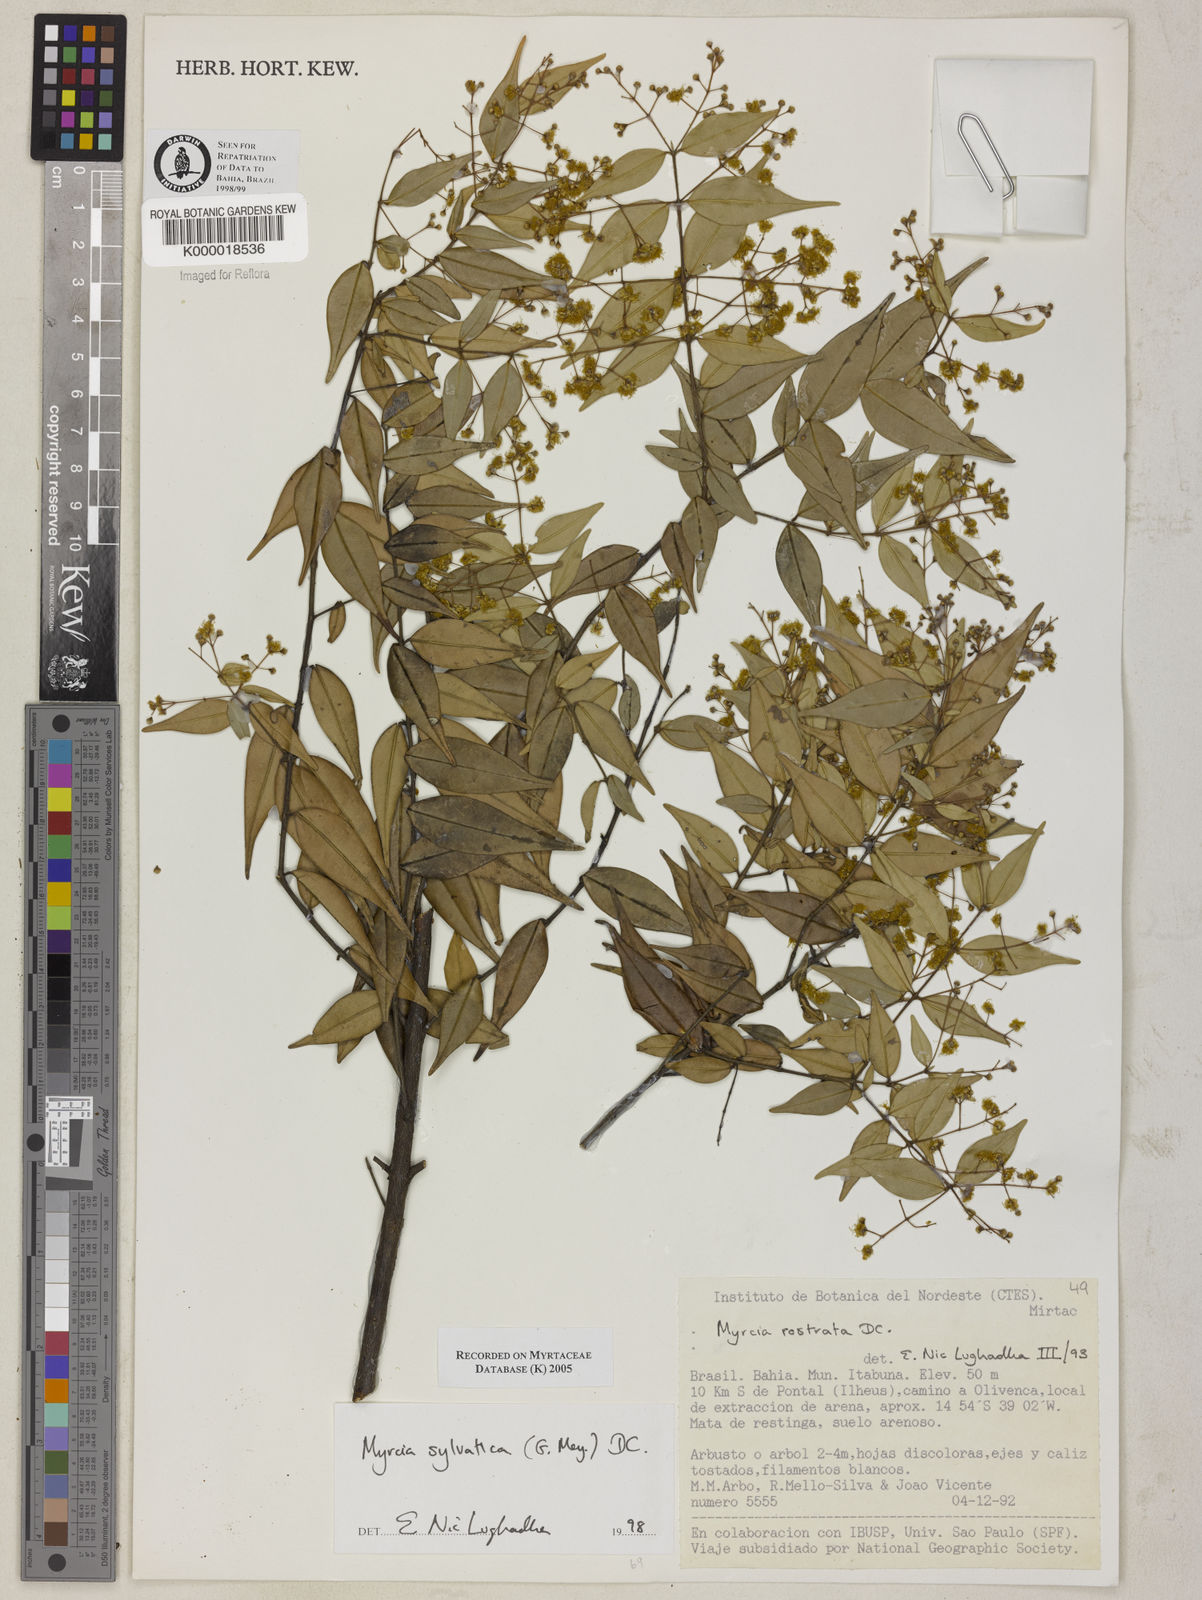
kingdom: Plantae
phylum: Tracheophyta
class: Magnoliopsida
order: Myrtales
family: Myrtaceae
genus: Myrcia
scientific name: Myrcia sylvatica
